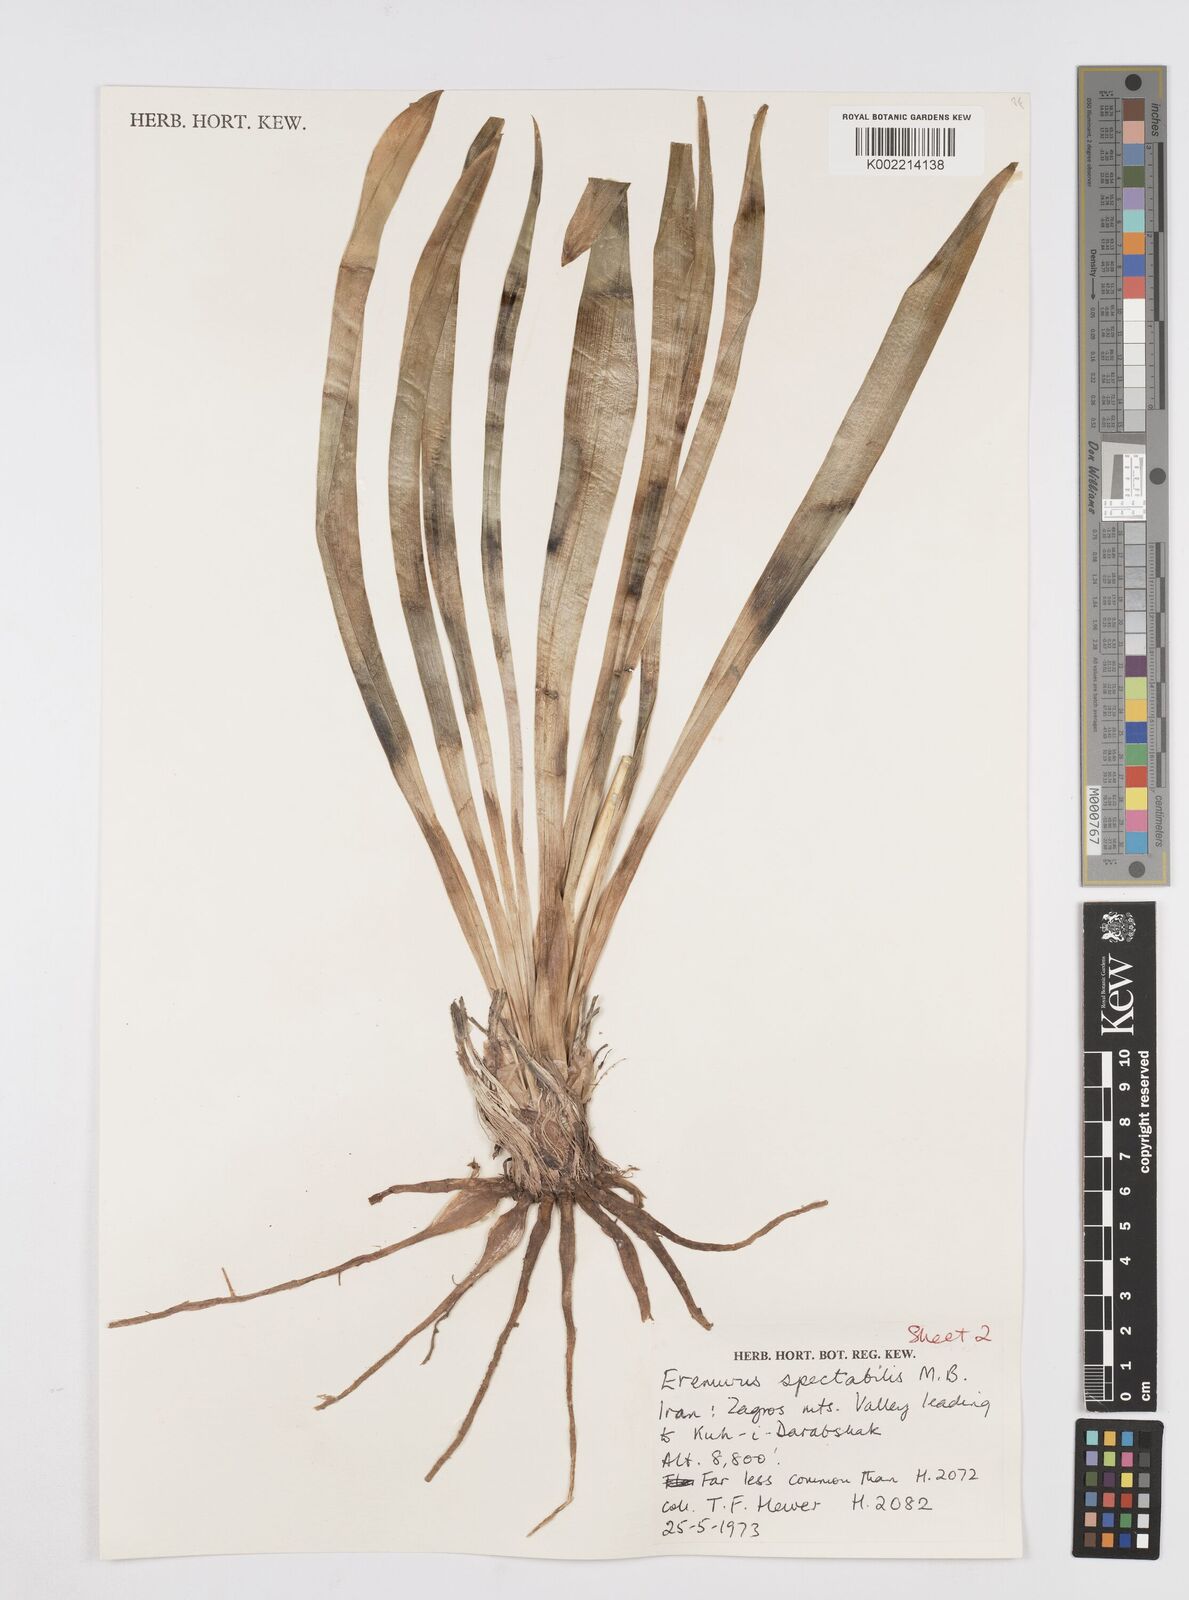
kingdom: Plantae
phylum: Tracheophyta
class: Liliopsida
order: Asparagales
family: Asphodelaceae
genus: Eremurus
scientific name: Eremurus spectabilis
